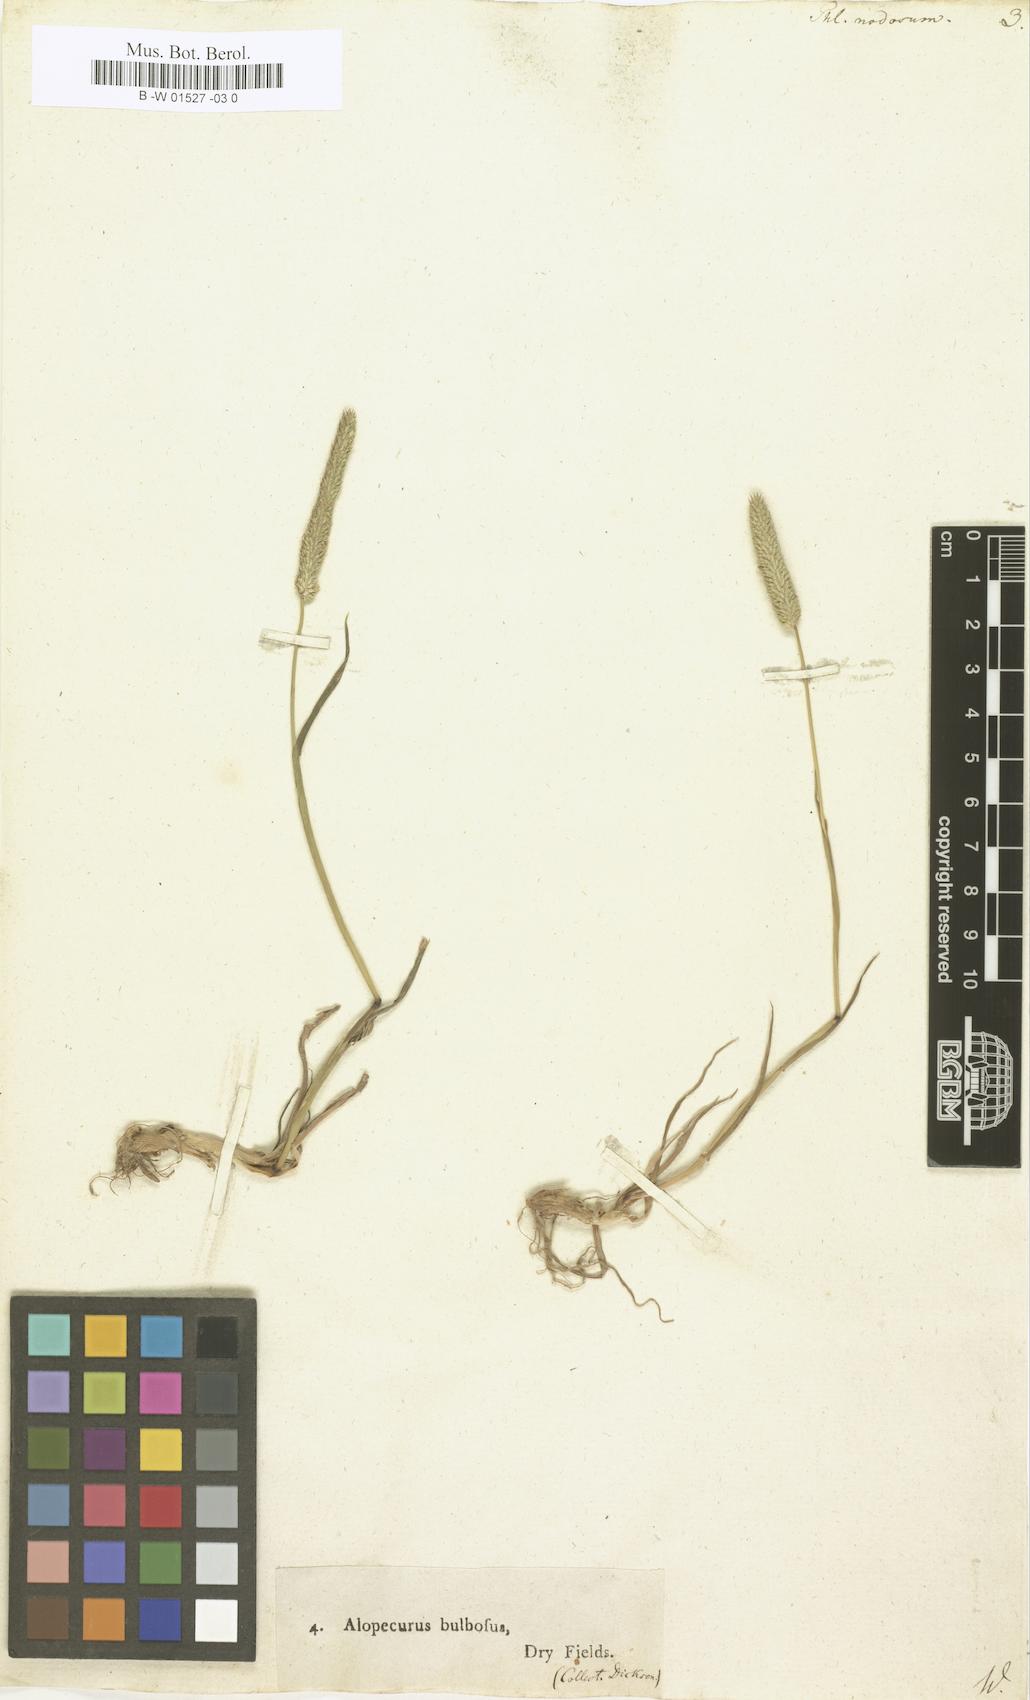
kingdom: Plantae
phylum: Tracheophyta
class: Liliopsida
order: Poales
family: Poaceae
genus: Phleum
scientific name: Phleum pratense
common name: Timothy grass
